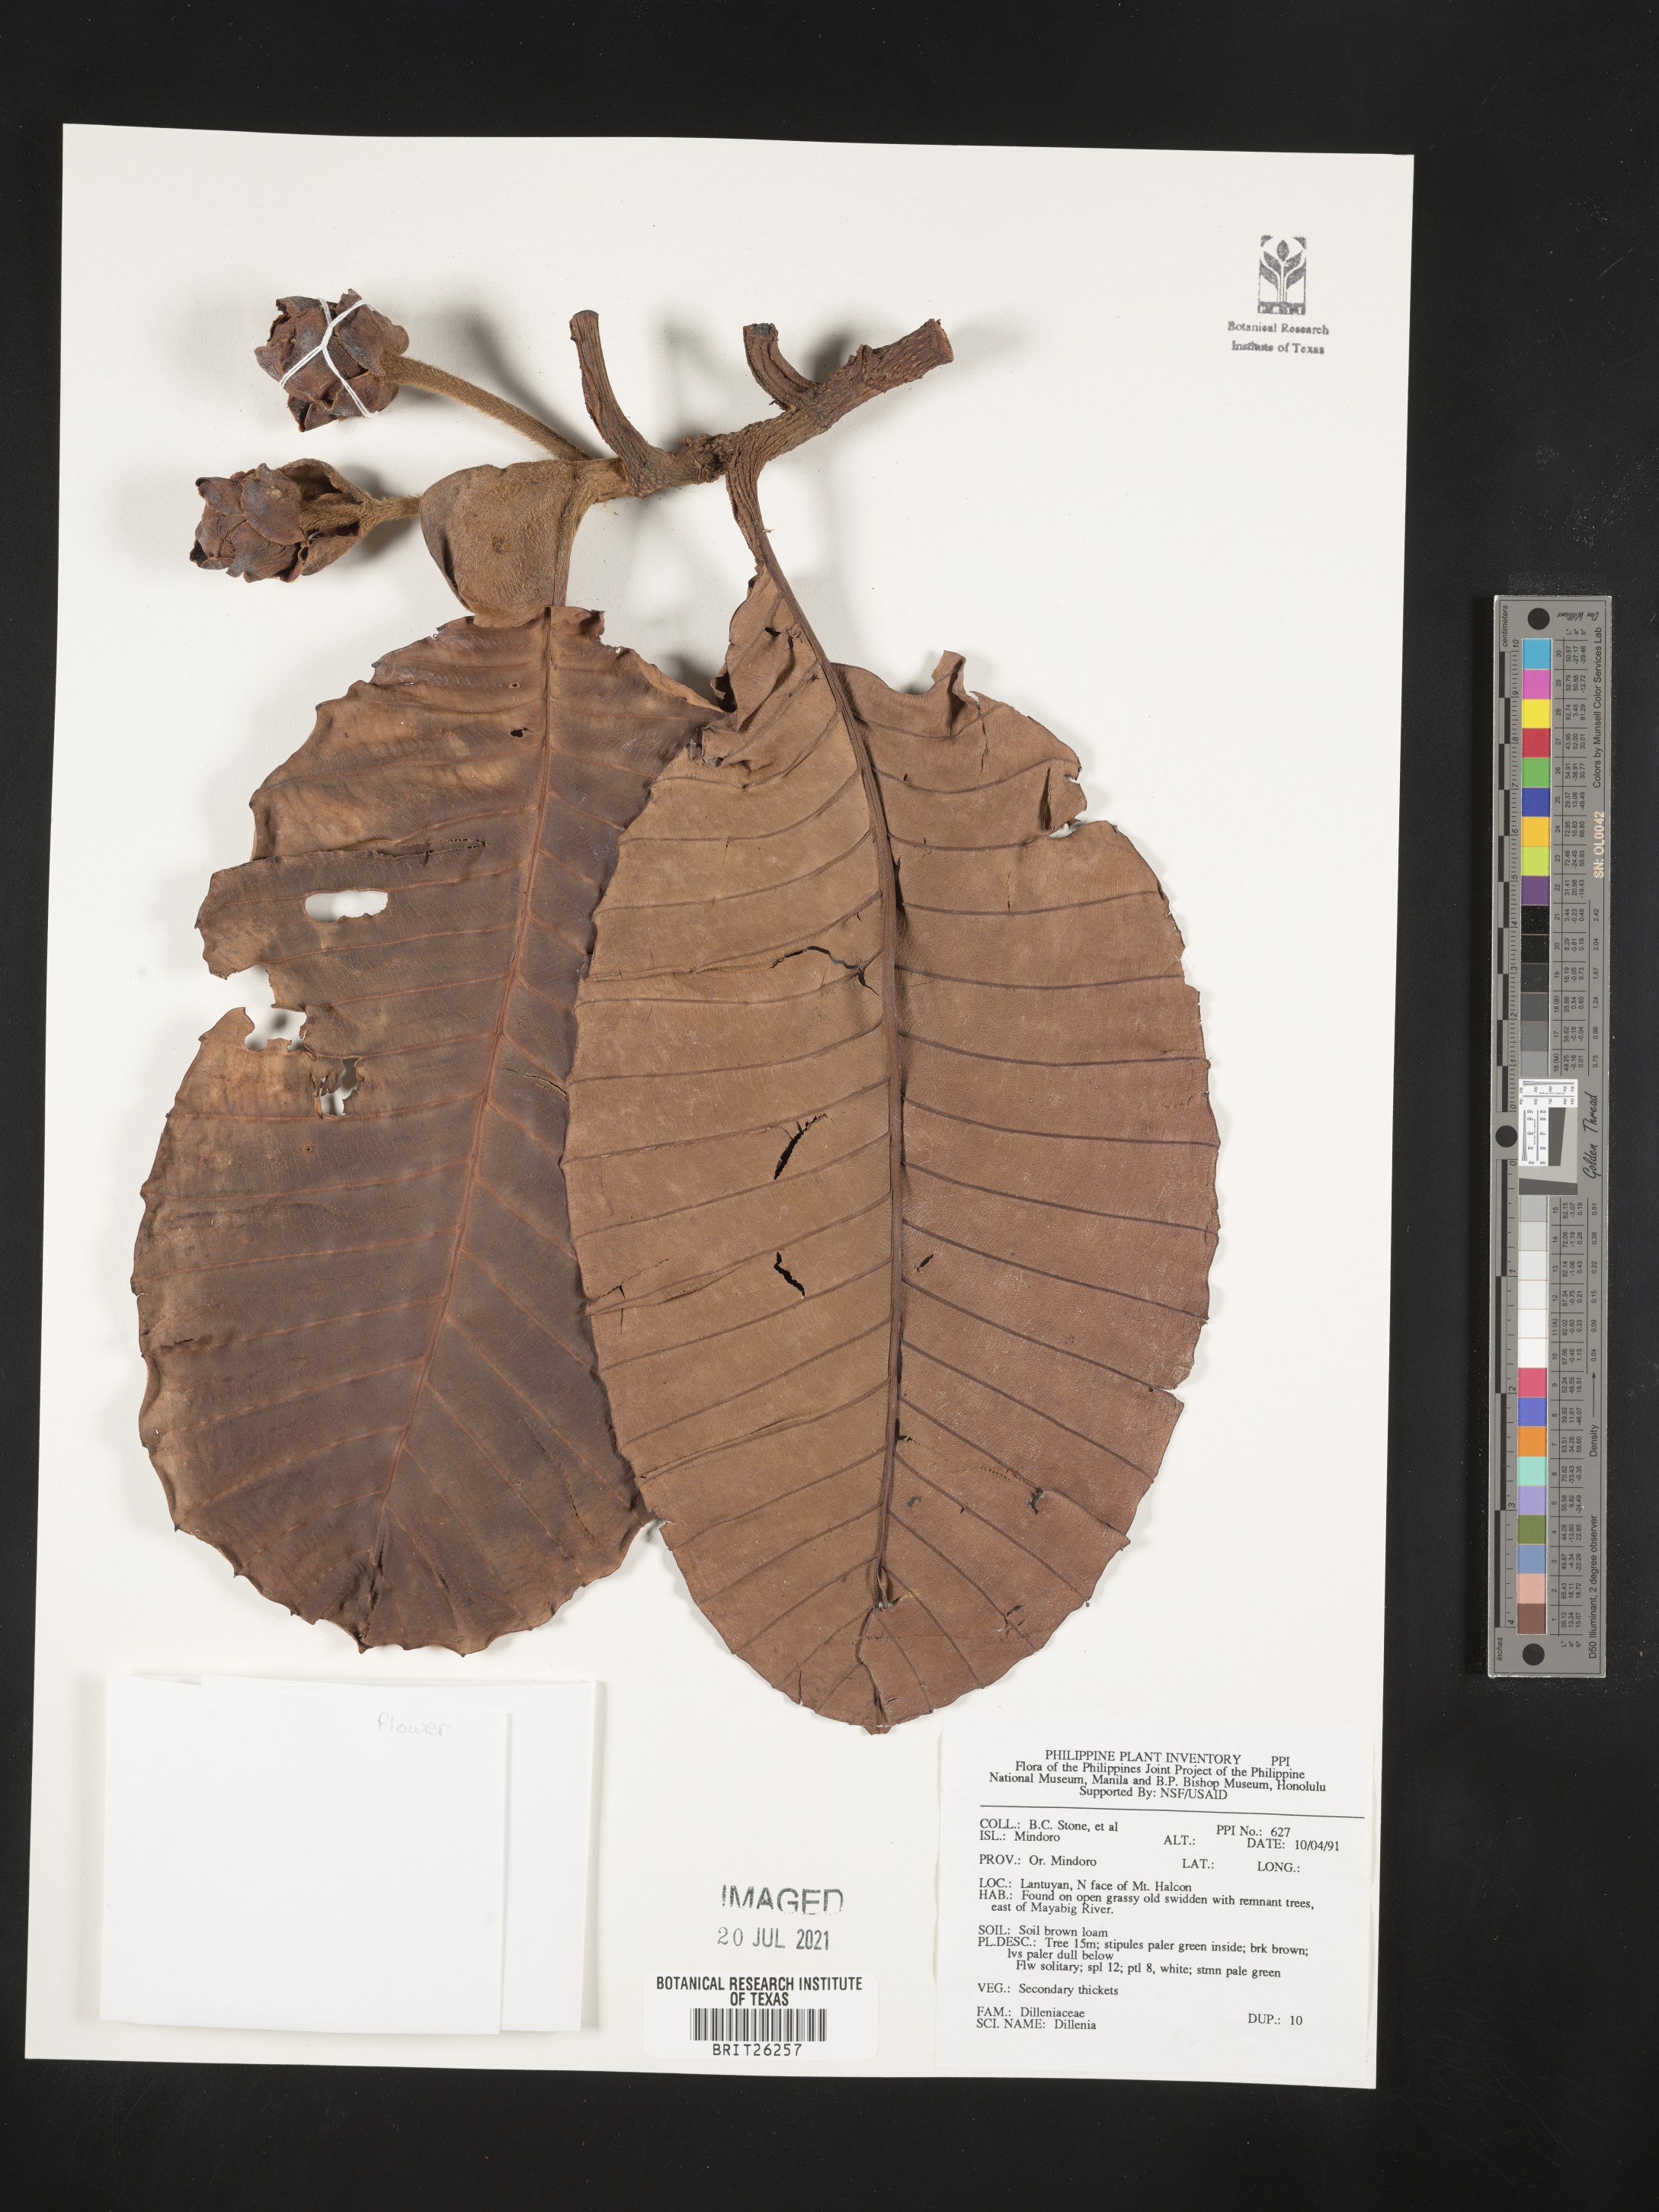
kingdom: Plantae
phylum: Tracheophyta
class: Magnoliopsida
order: Dilleniales
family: Dilleniaceae
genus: Dillenia
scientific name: Dillenia
